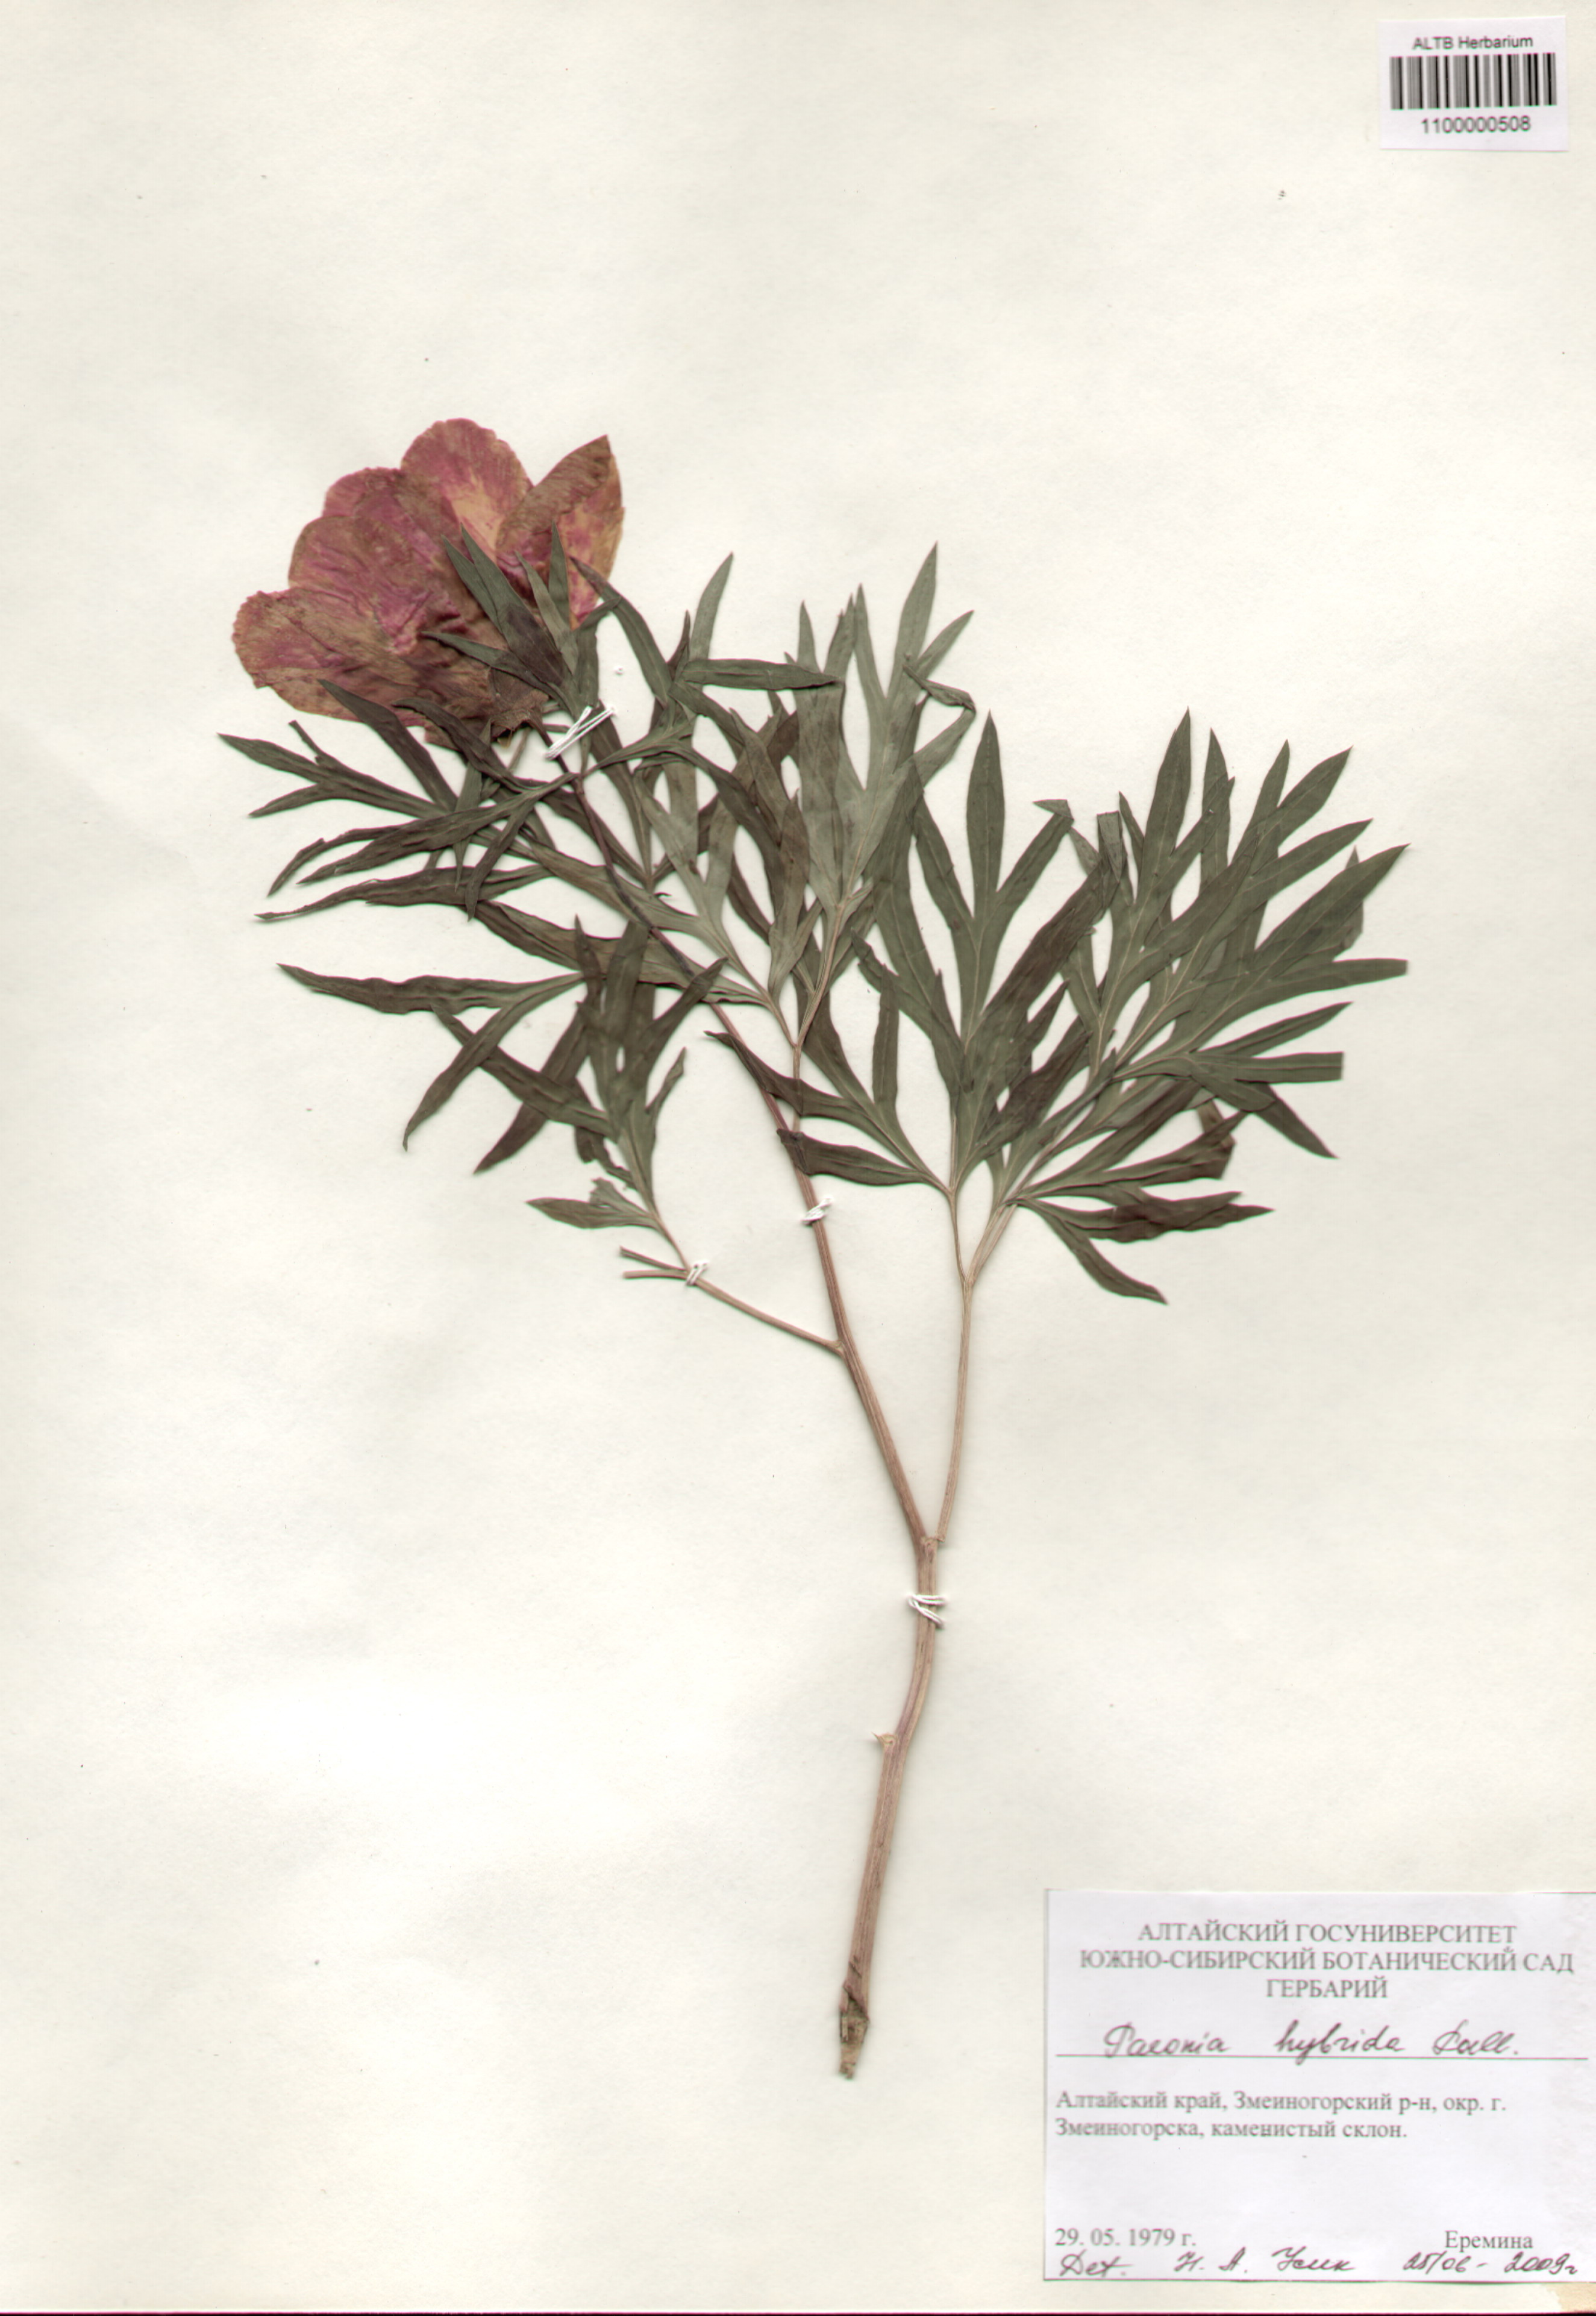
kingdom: Plantae
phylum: Tracheophyta
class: Magnoliopsida
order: Saxifragales
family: Paeoniaceae
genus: Paeonia
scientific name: Paeonia
